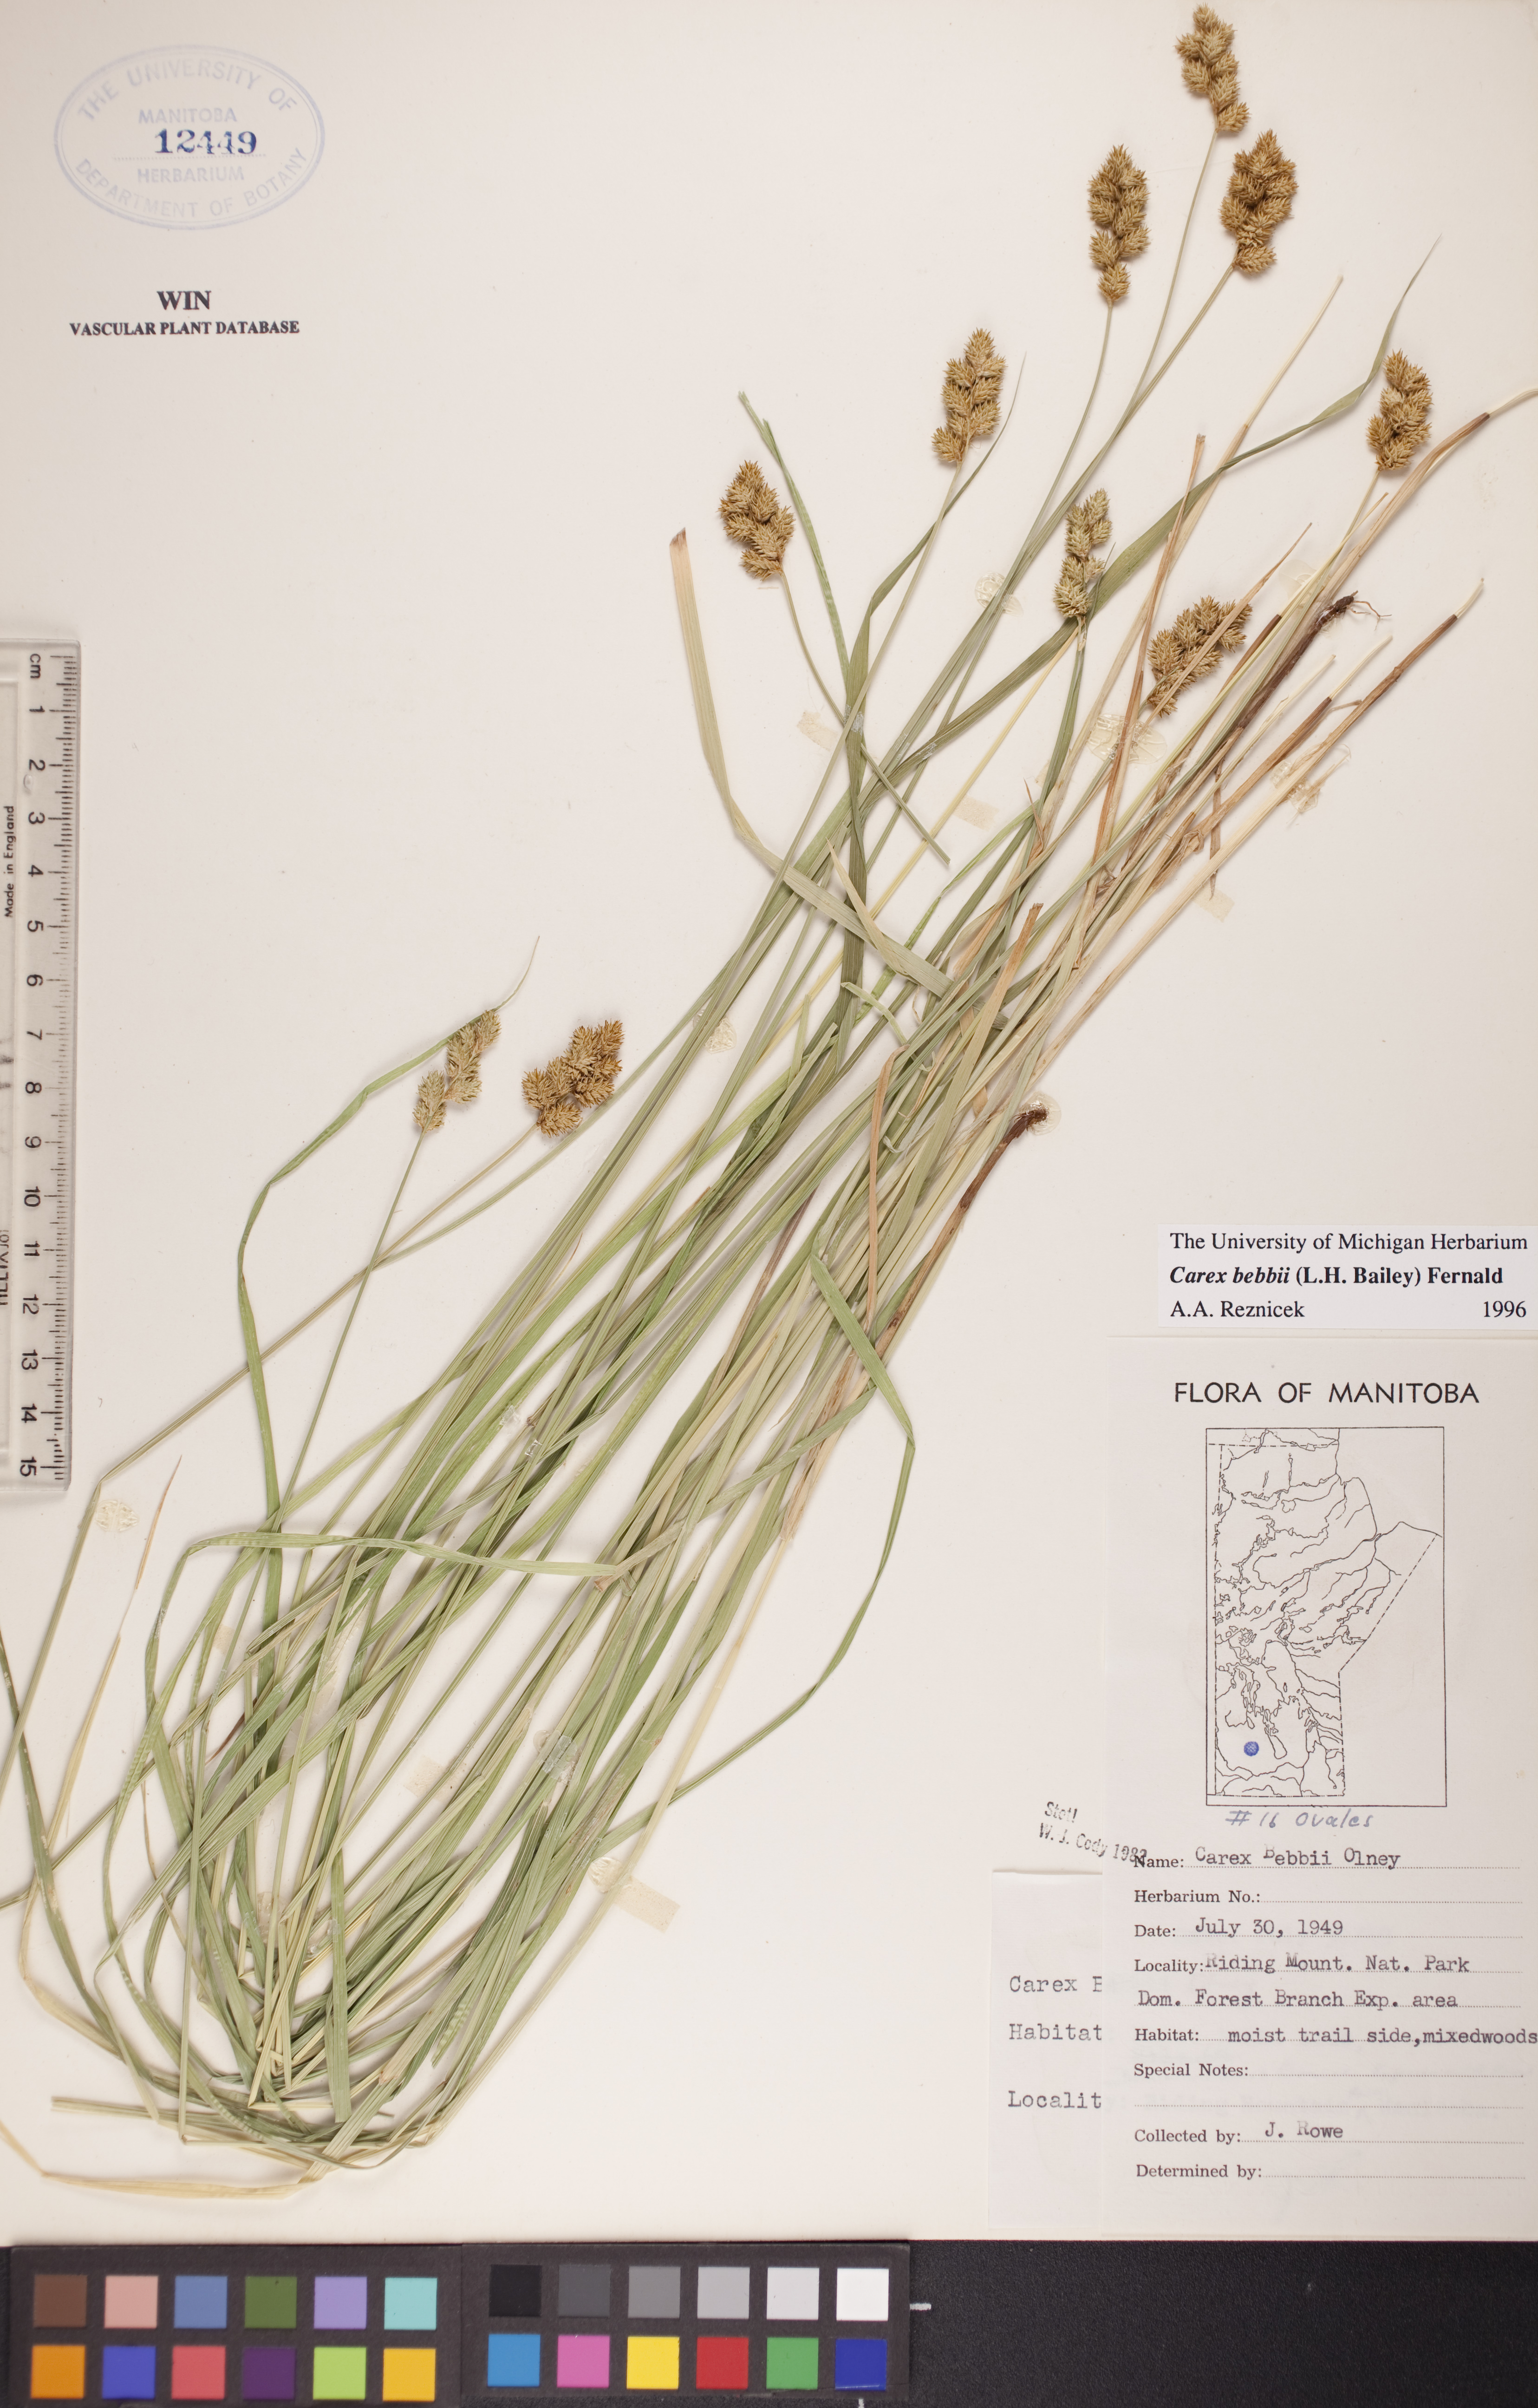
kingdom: Plantae
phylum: Tracheophyta
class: Liliopsida
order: Poales
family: Cyperaceae
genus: Carex
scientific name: Carex bebbii
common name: Bebb's sedge
